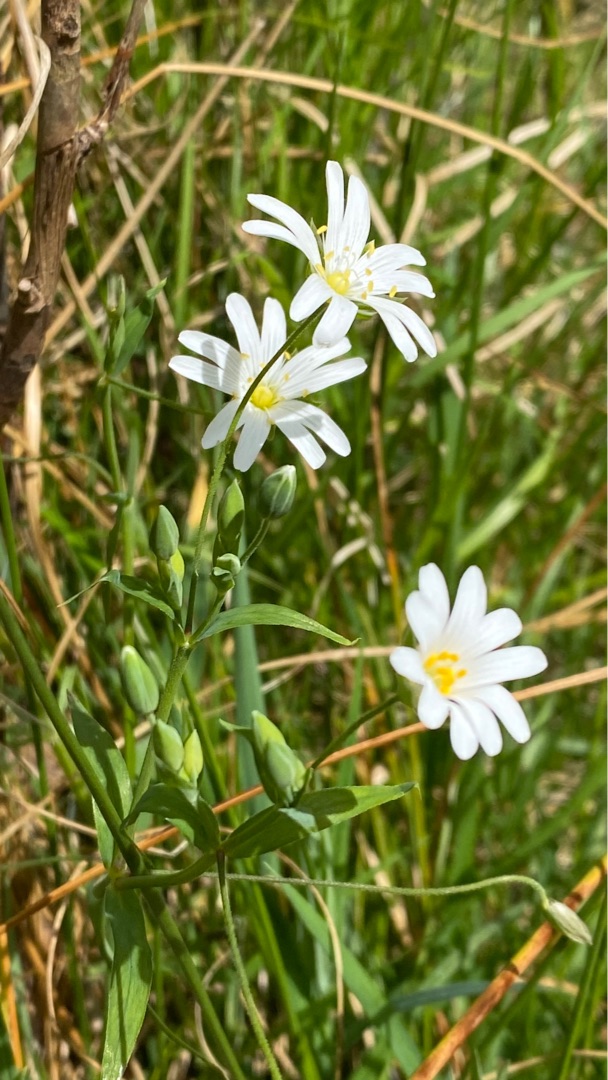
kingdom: Plantae
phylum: Tracheophyta
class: Magnoliopsida
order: Caryophyllales
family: Caryophyllaceae
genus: Rabelera
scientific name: Rabelera holostea
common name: Stor fladstjerne
